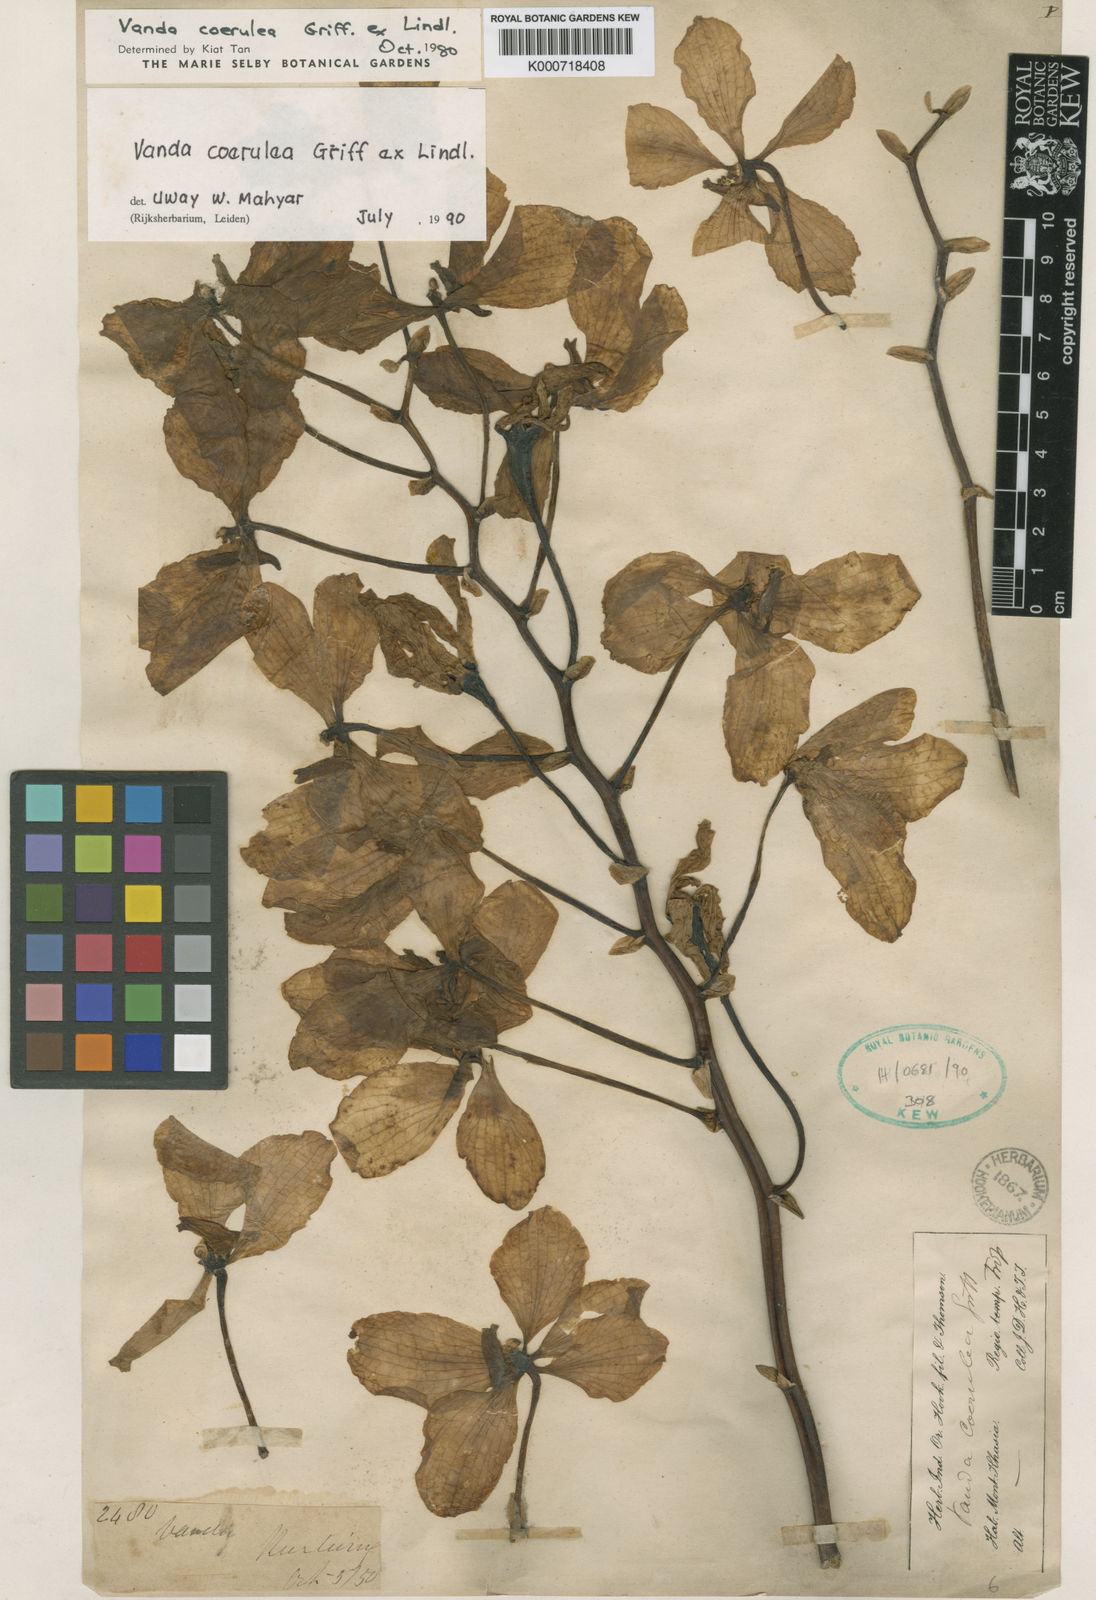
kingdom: Plantae
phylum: Tracheophyta
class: Liliopsida
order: Asparagales
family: Orchidaceae
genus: Vanda
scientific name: Vanda coerulea
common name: Blue orchid
